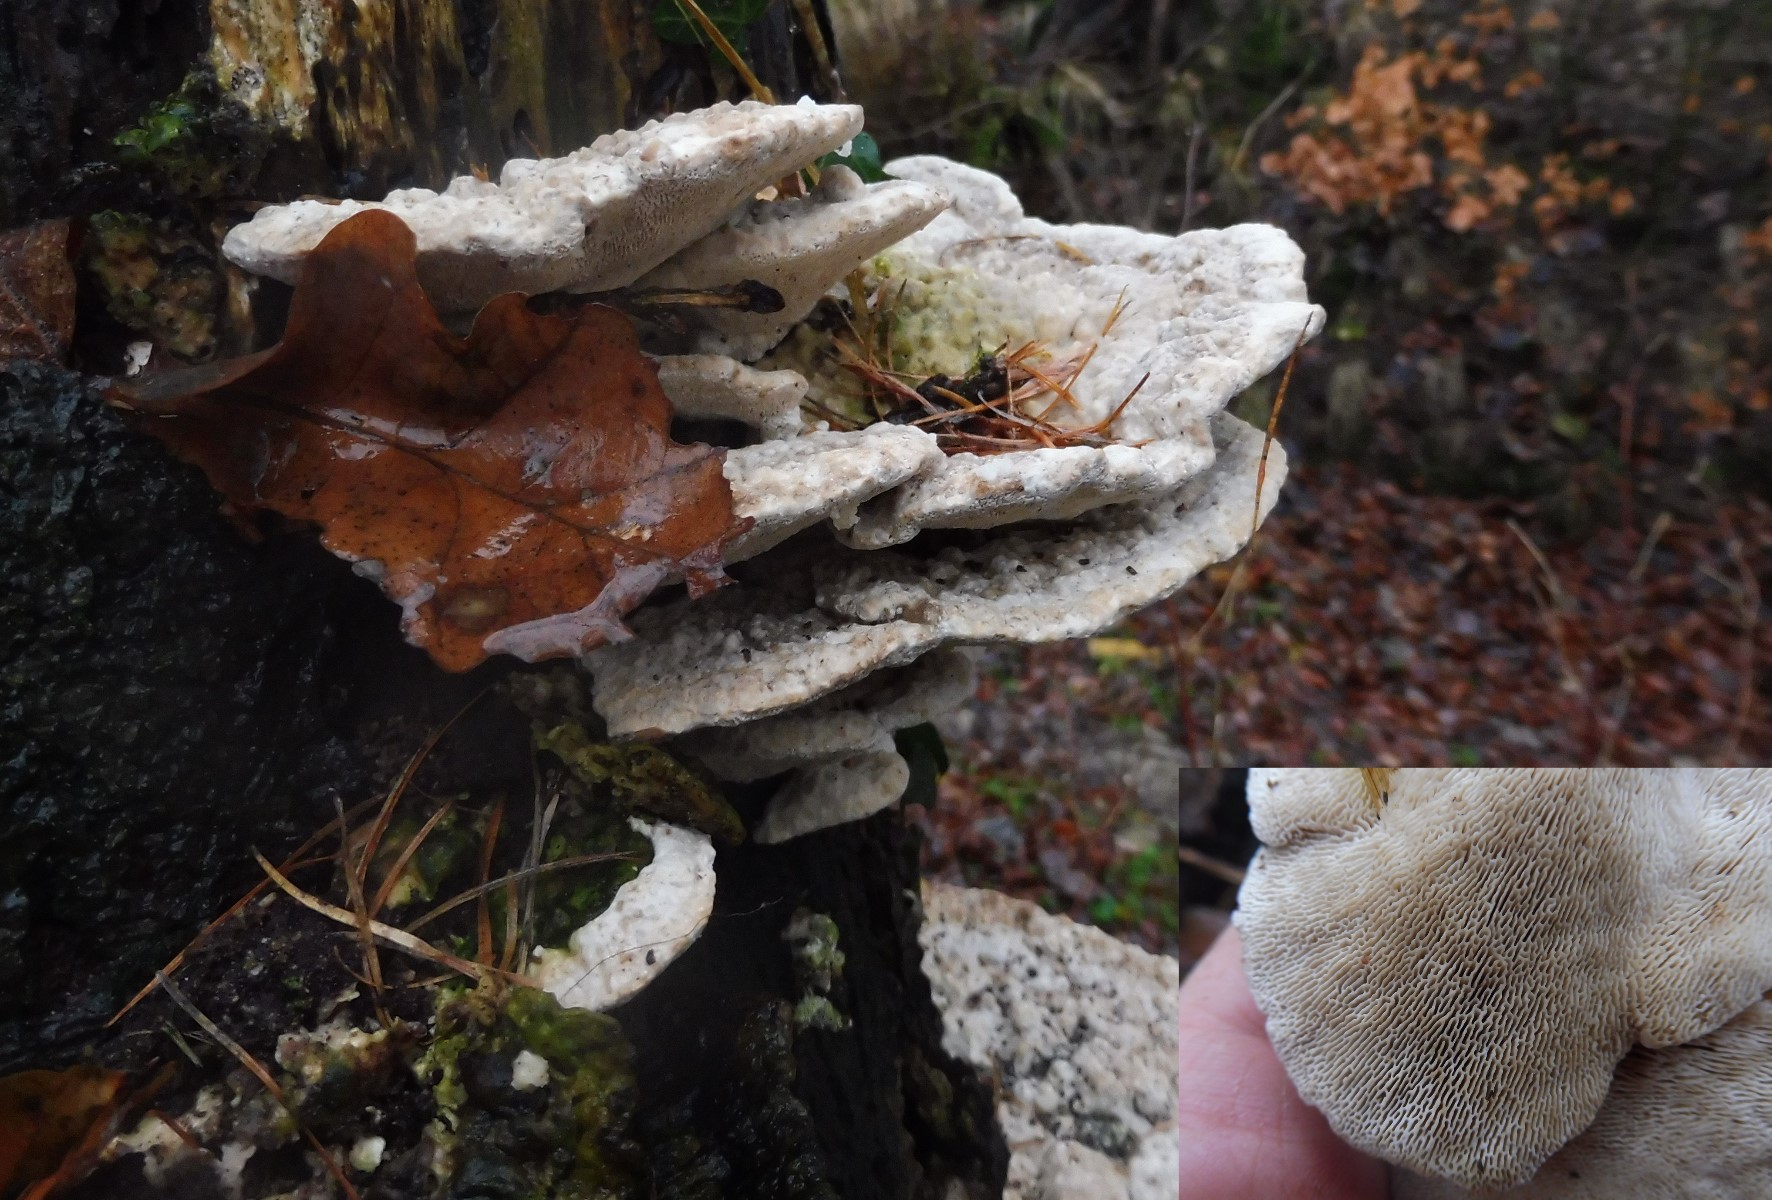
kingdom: Fungi
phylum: Basidiomycota
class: Agaricomycetes
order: Polyporales
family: Polyporaceae
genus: Trametes
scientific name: Trametes gibbosa
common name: puklet læderporesvamp
